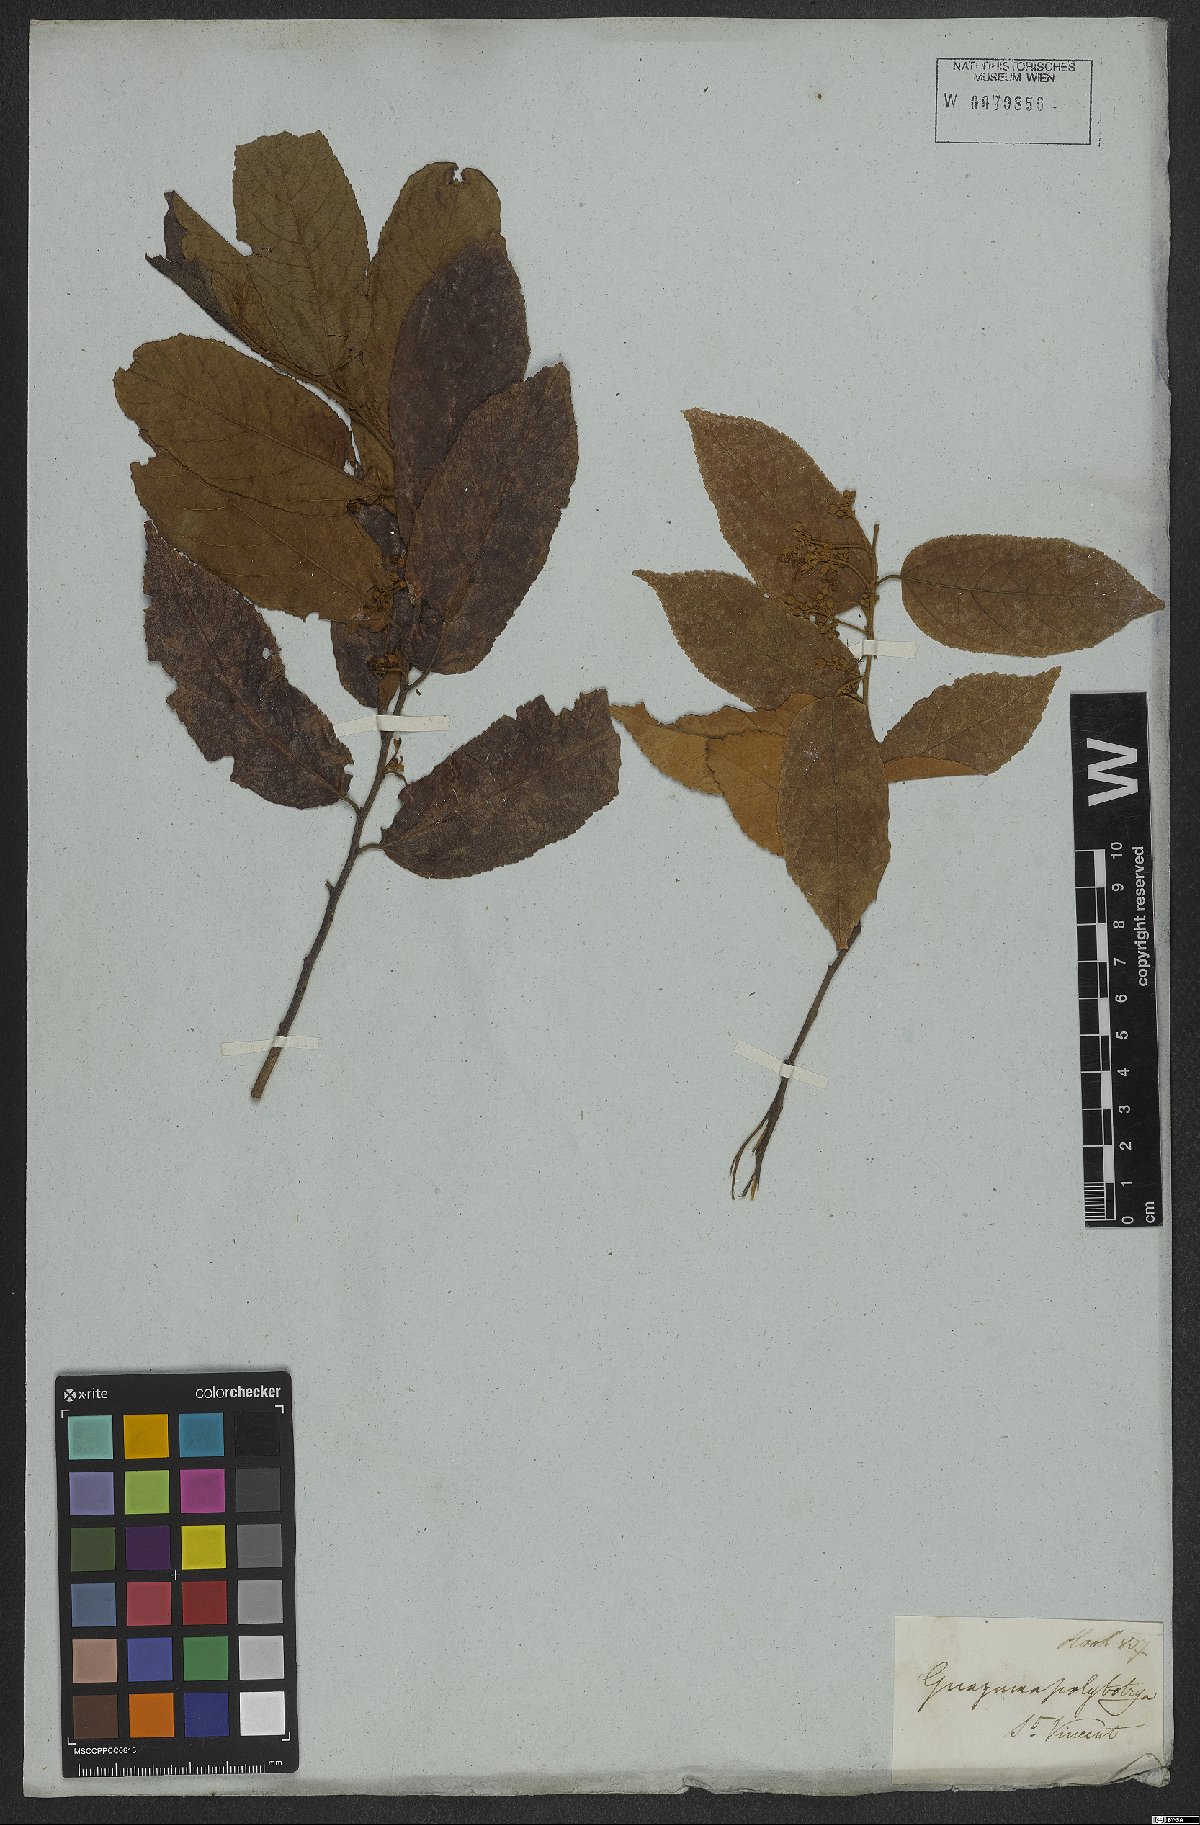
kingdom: Plantae
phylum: Tracheophyta
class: Magnoliopsida
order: Malvales
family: Malvaceae
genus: Guazuma
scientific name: Guazuma ulmifolia
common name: Bastard-cedar
